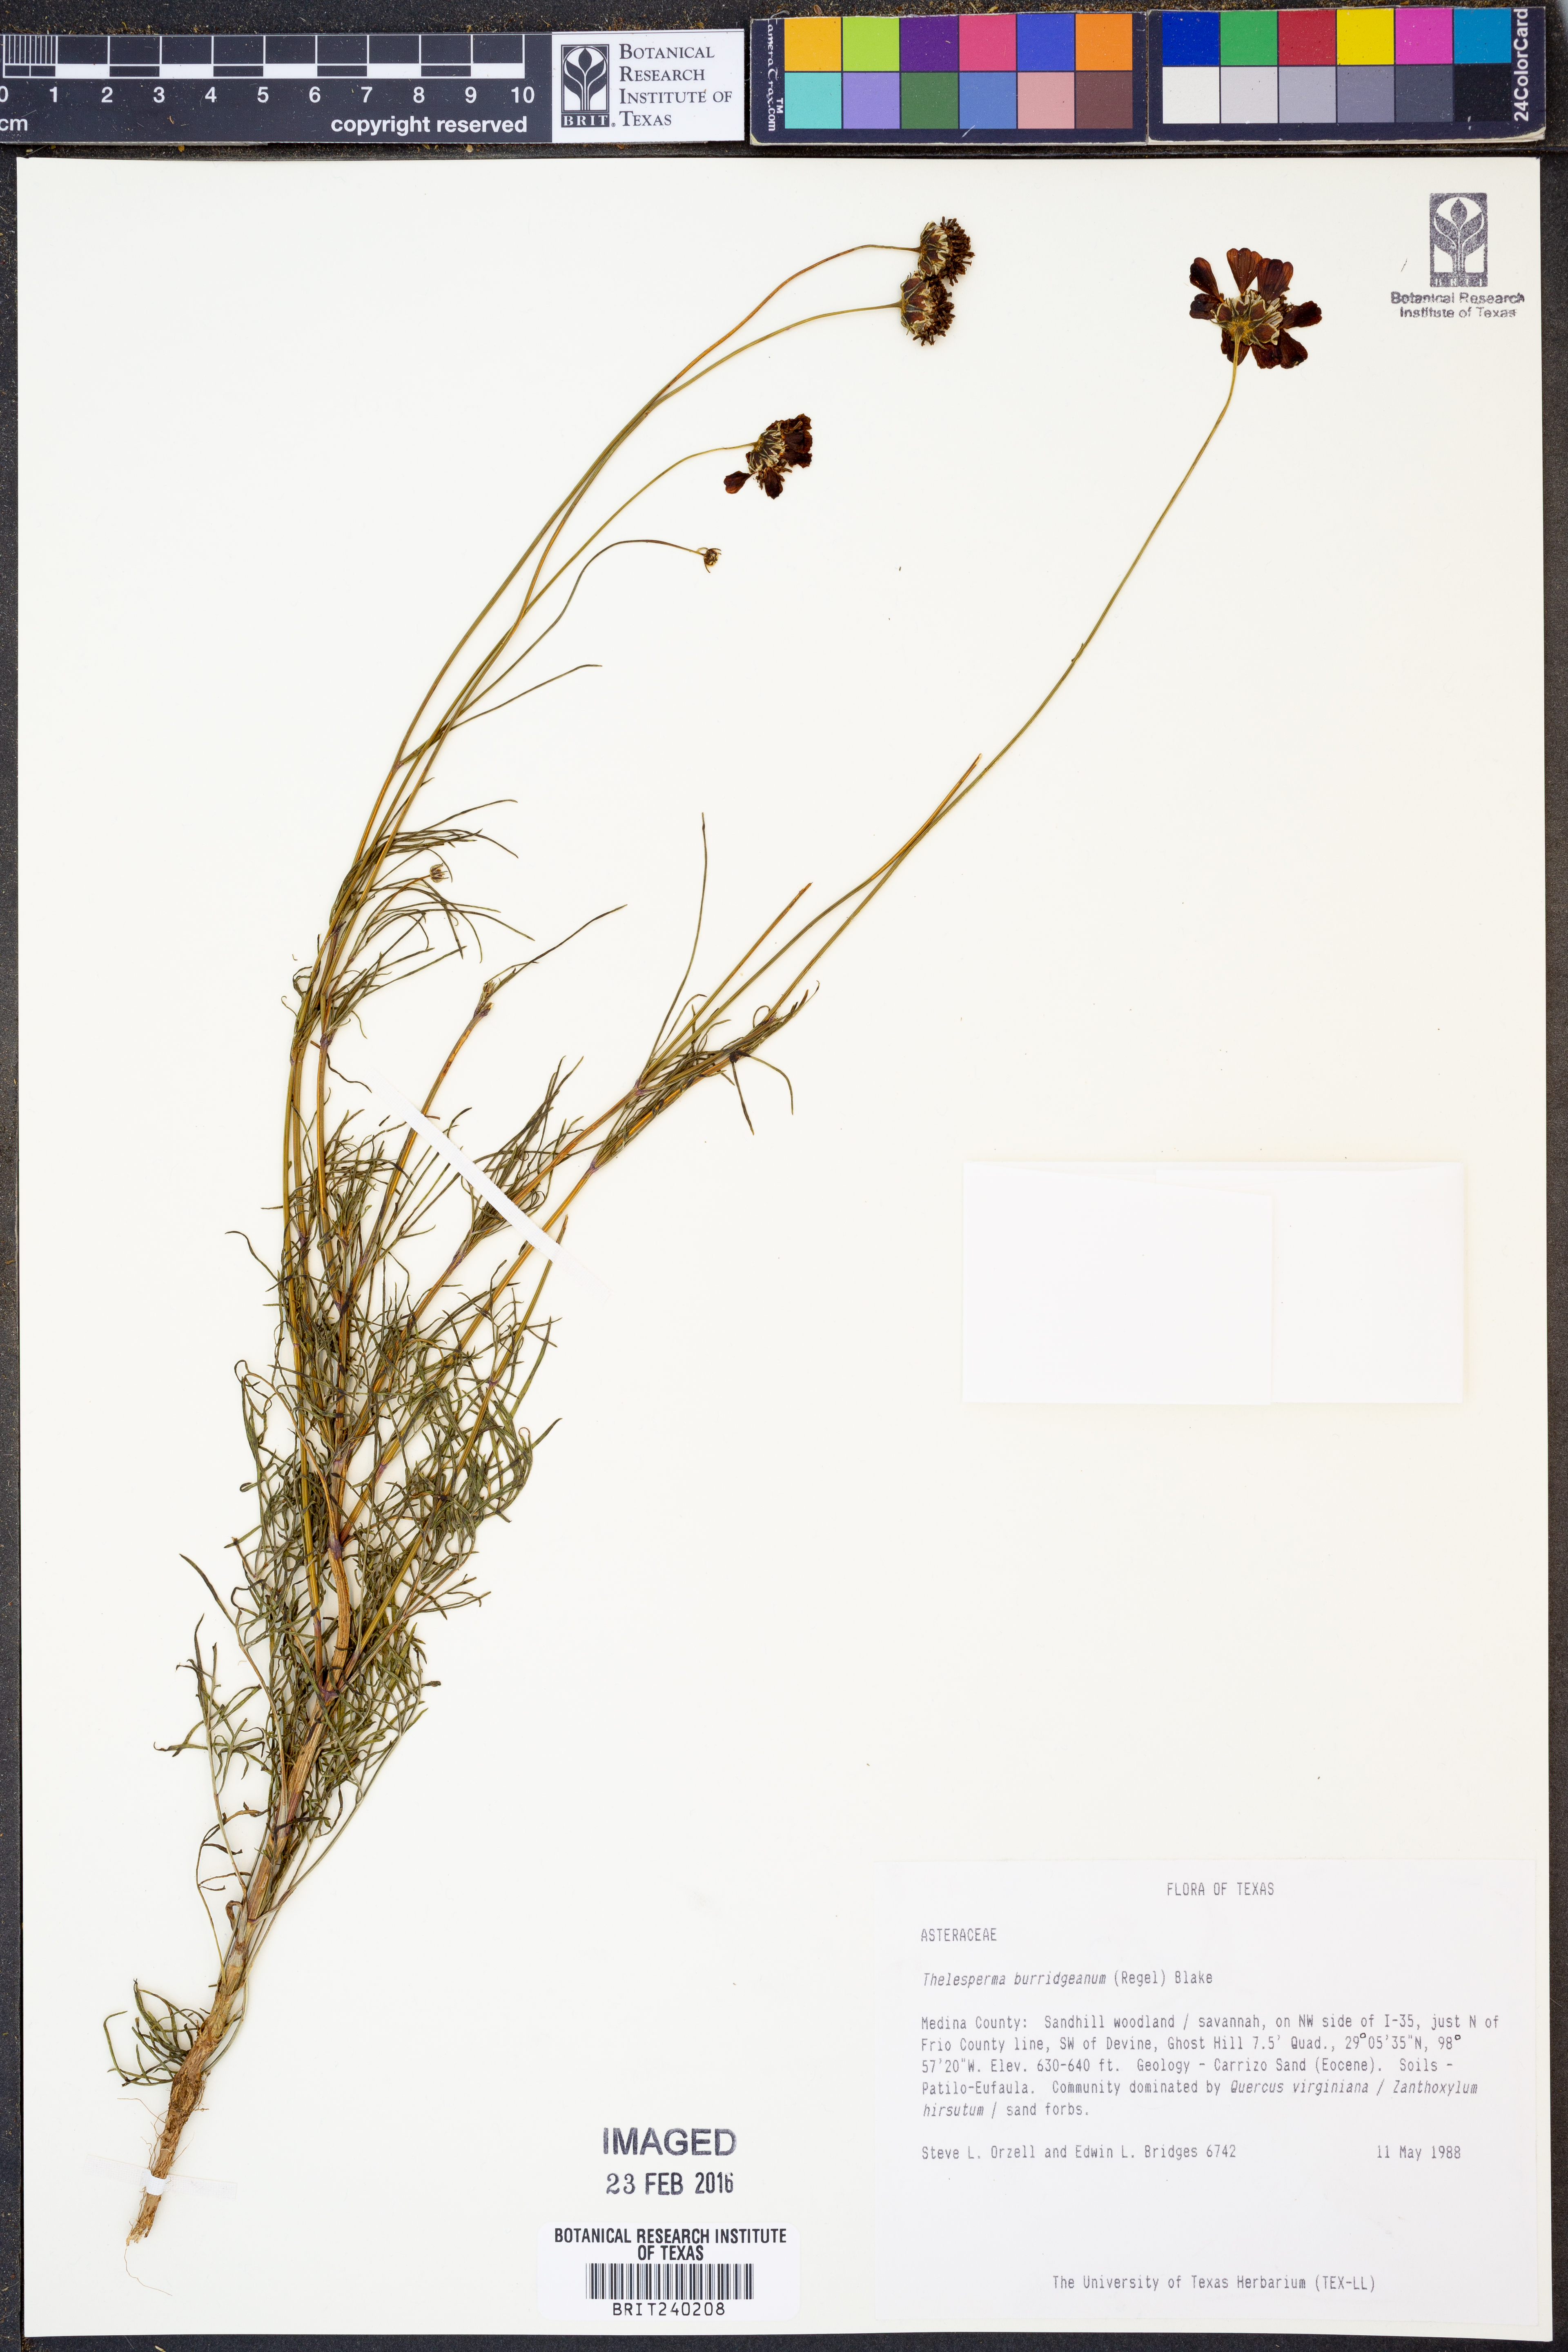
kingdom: Plantae
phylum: Tracheophyta
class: Magnoliopsida
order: Asterales
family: Asteraceae
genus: Thelesperma
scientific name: Thelesperma burridgeanum
